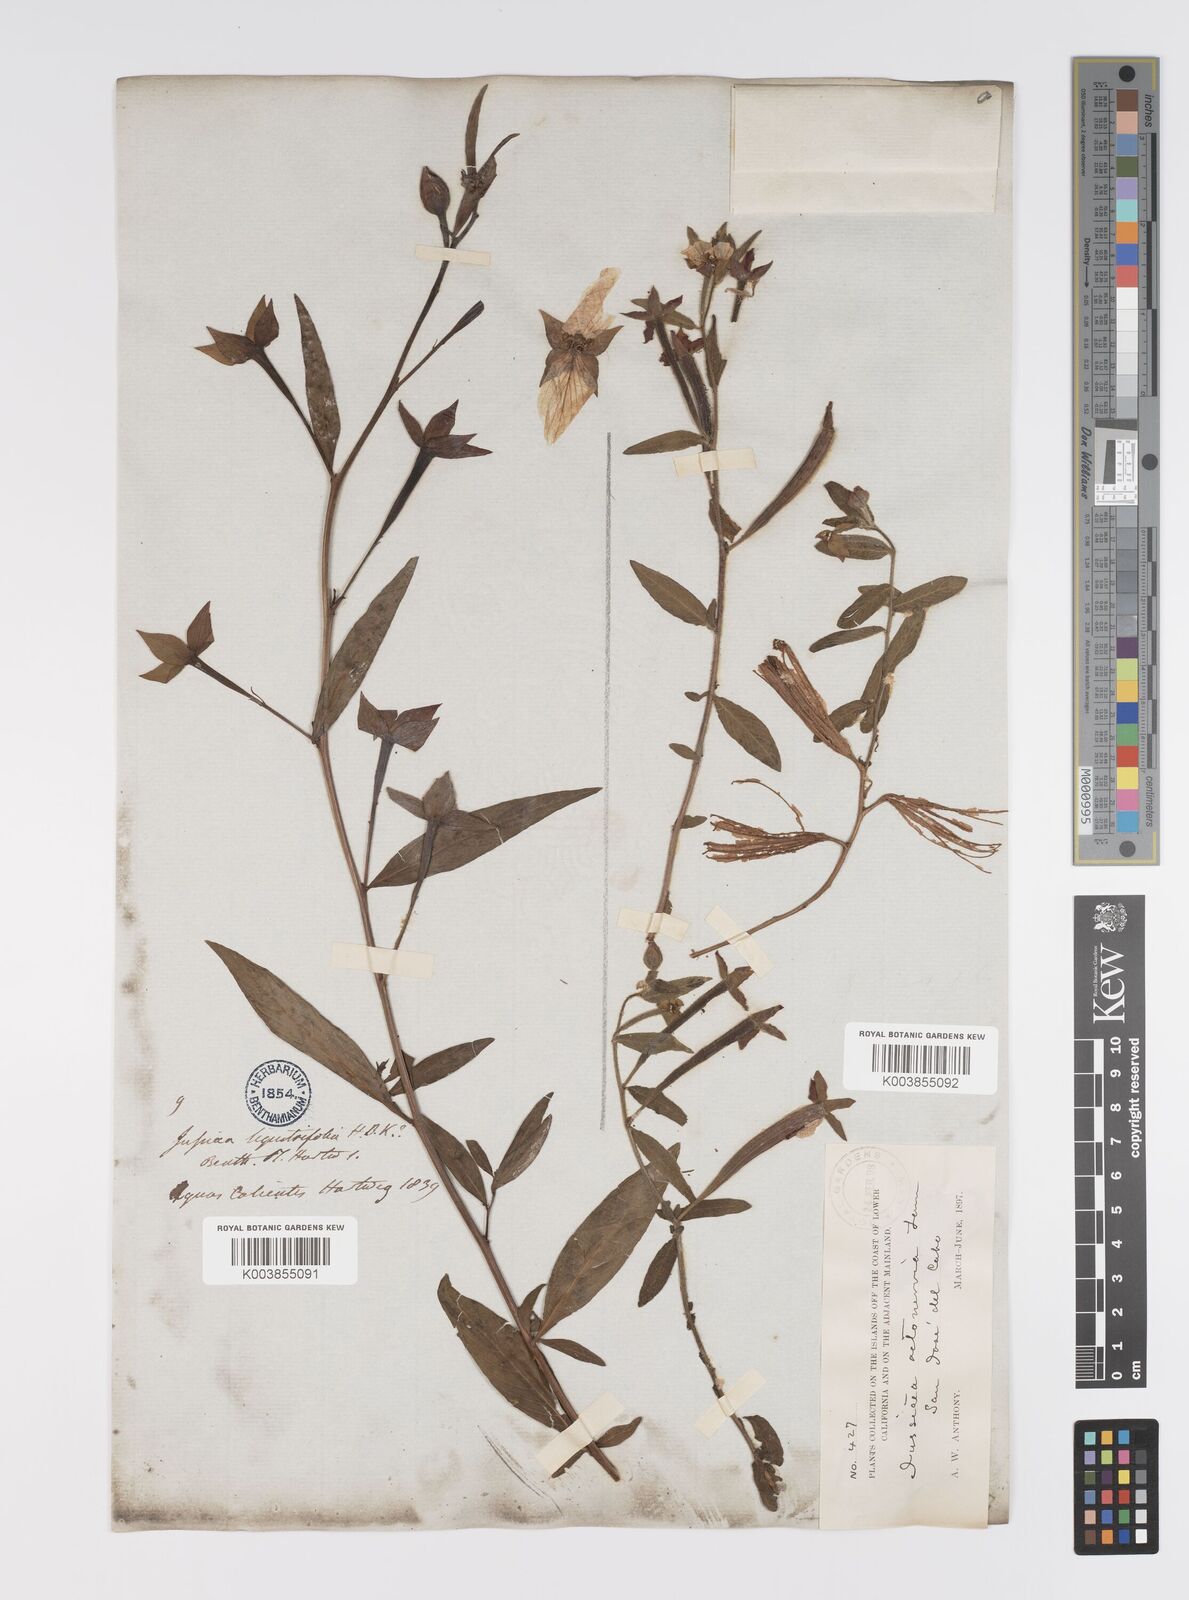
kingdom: Plantae
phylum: Tracheophyta
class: Magnoliopsida
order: Myrtales
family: Onagraceae
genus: Ludwigia
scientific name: Ludwigia octovalvis
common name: Water-primrose
